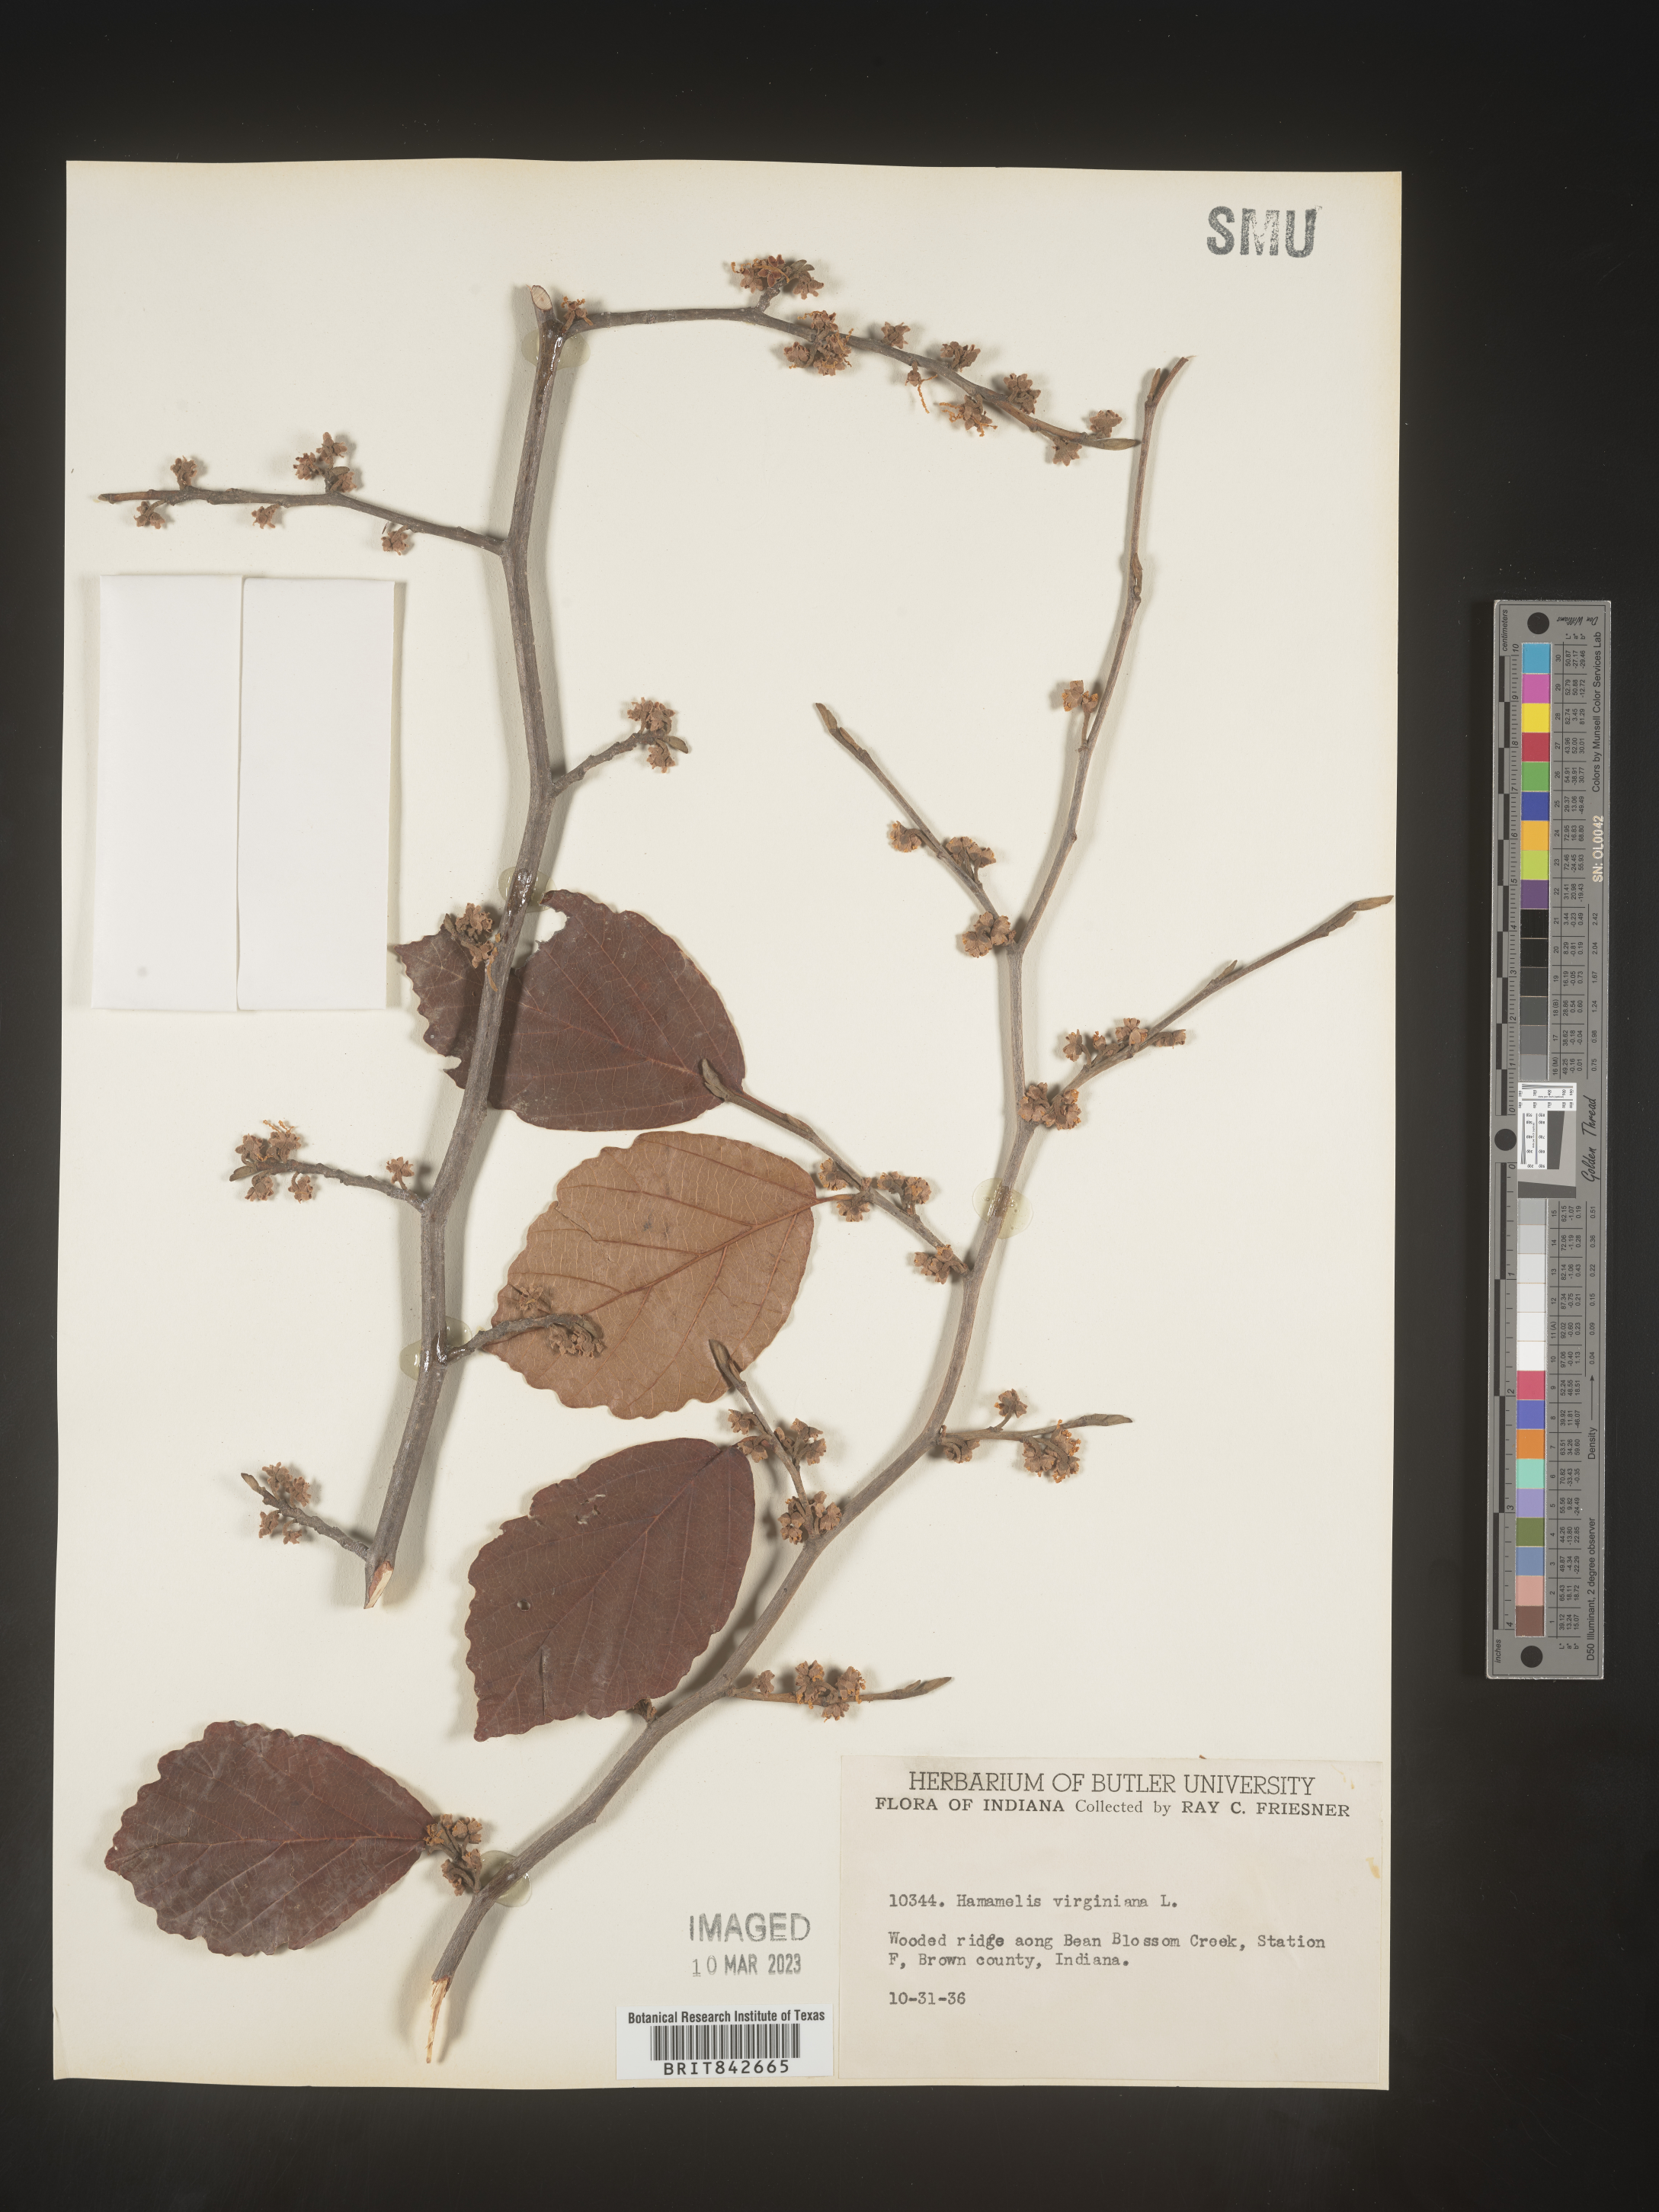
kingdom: Plantae
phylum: Tracheophyta
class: Magnoliopsida
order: Saxifragales
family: Hamamelidaceae
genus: Hamamelis
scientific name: Hamamelis virginiana
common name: Witch-hazel
